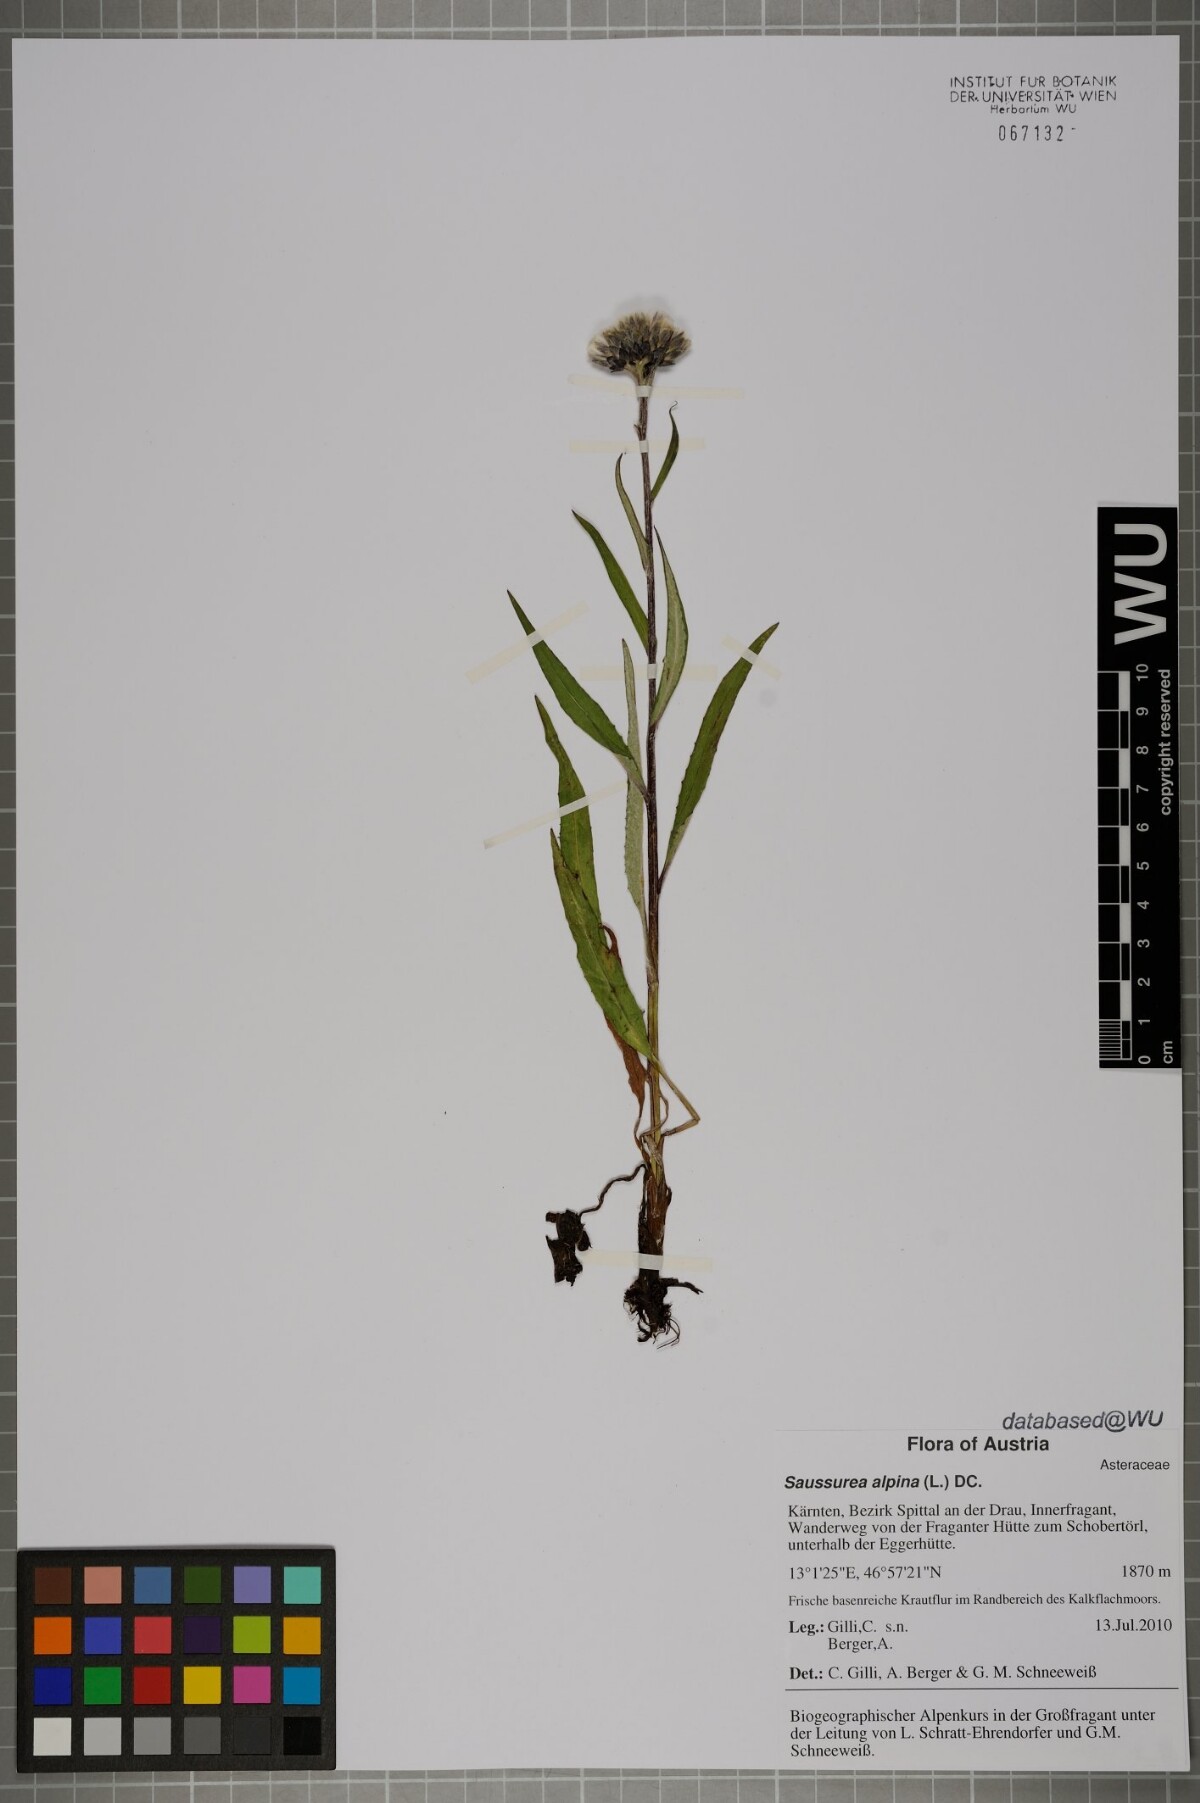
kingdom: Plantae
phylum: Tracheophyta
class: Magnoliopsida
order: Asterales
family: Asteraceae
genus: Saussurea
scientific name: Saussurea alpina
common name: Alpine saw-wort
